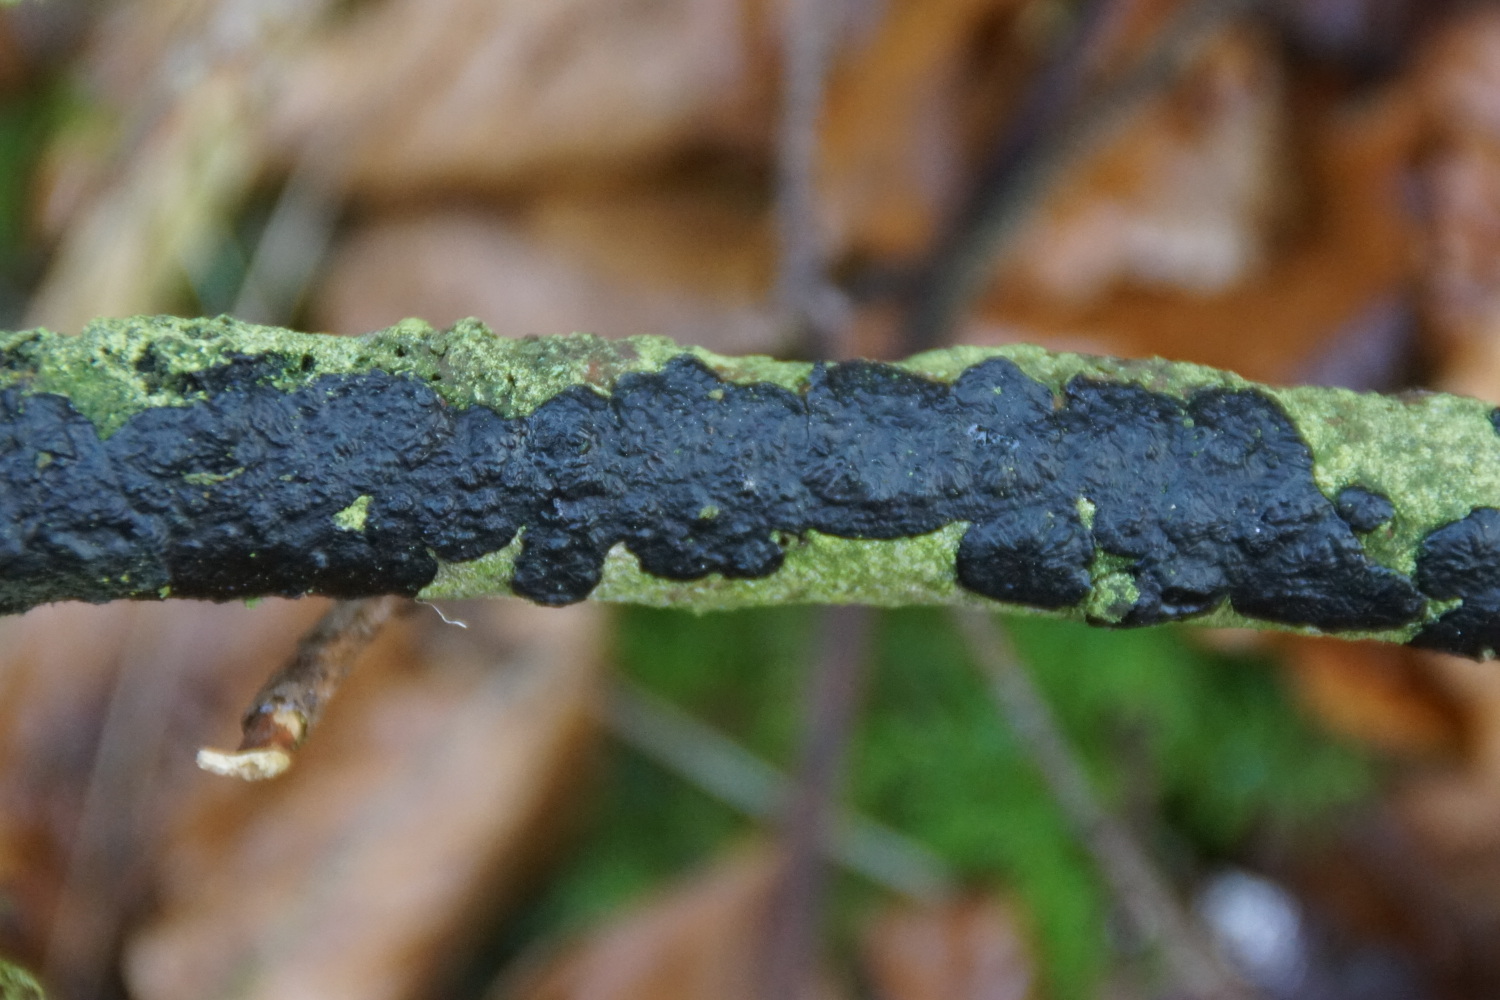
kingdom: Fungi
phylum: Basidiomycota
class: Agaricomycetes
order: Auriculariales
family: Auriculariaceae
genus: Exidia
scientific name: Exidia pithya
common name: gran-bævretop
